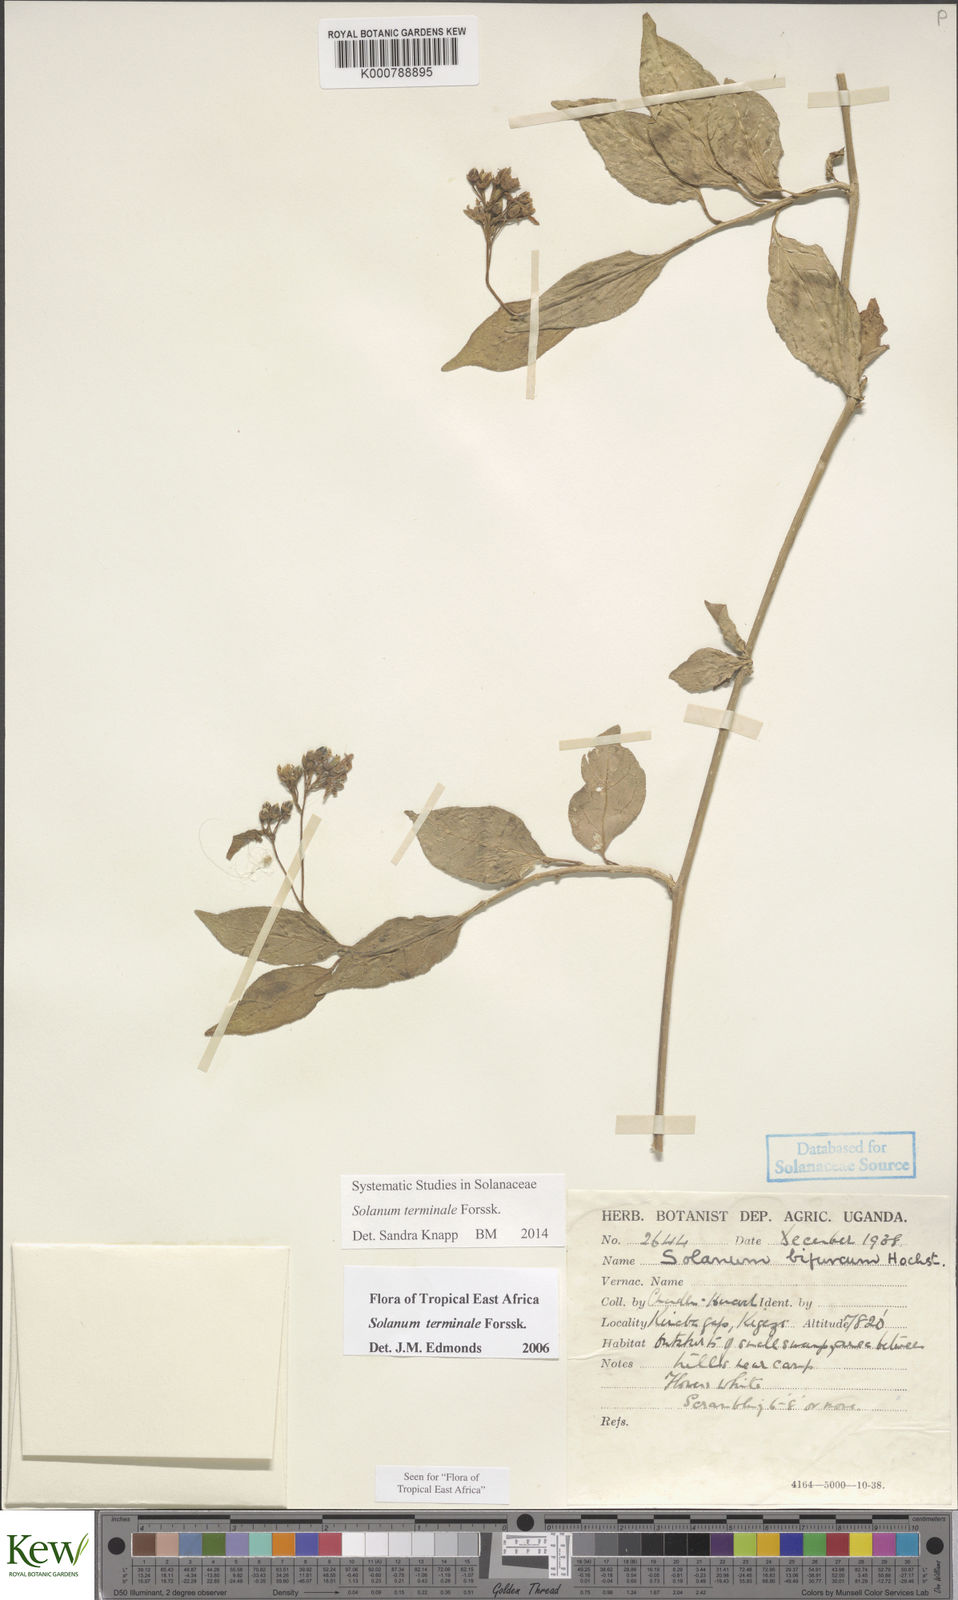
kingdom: Plantae
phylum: Tracheophyta
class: Magnoliopsida
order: Solanales
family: Solanaceae
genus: Solanum
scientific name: Solanum terminale
